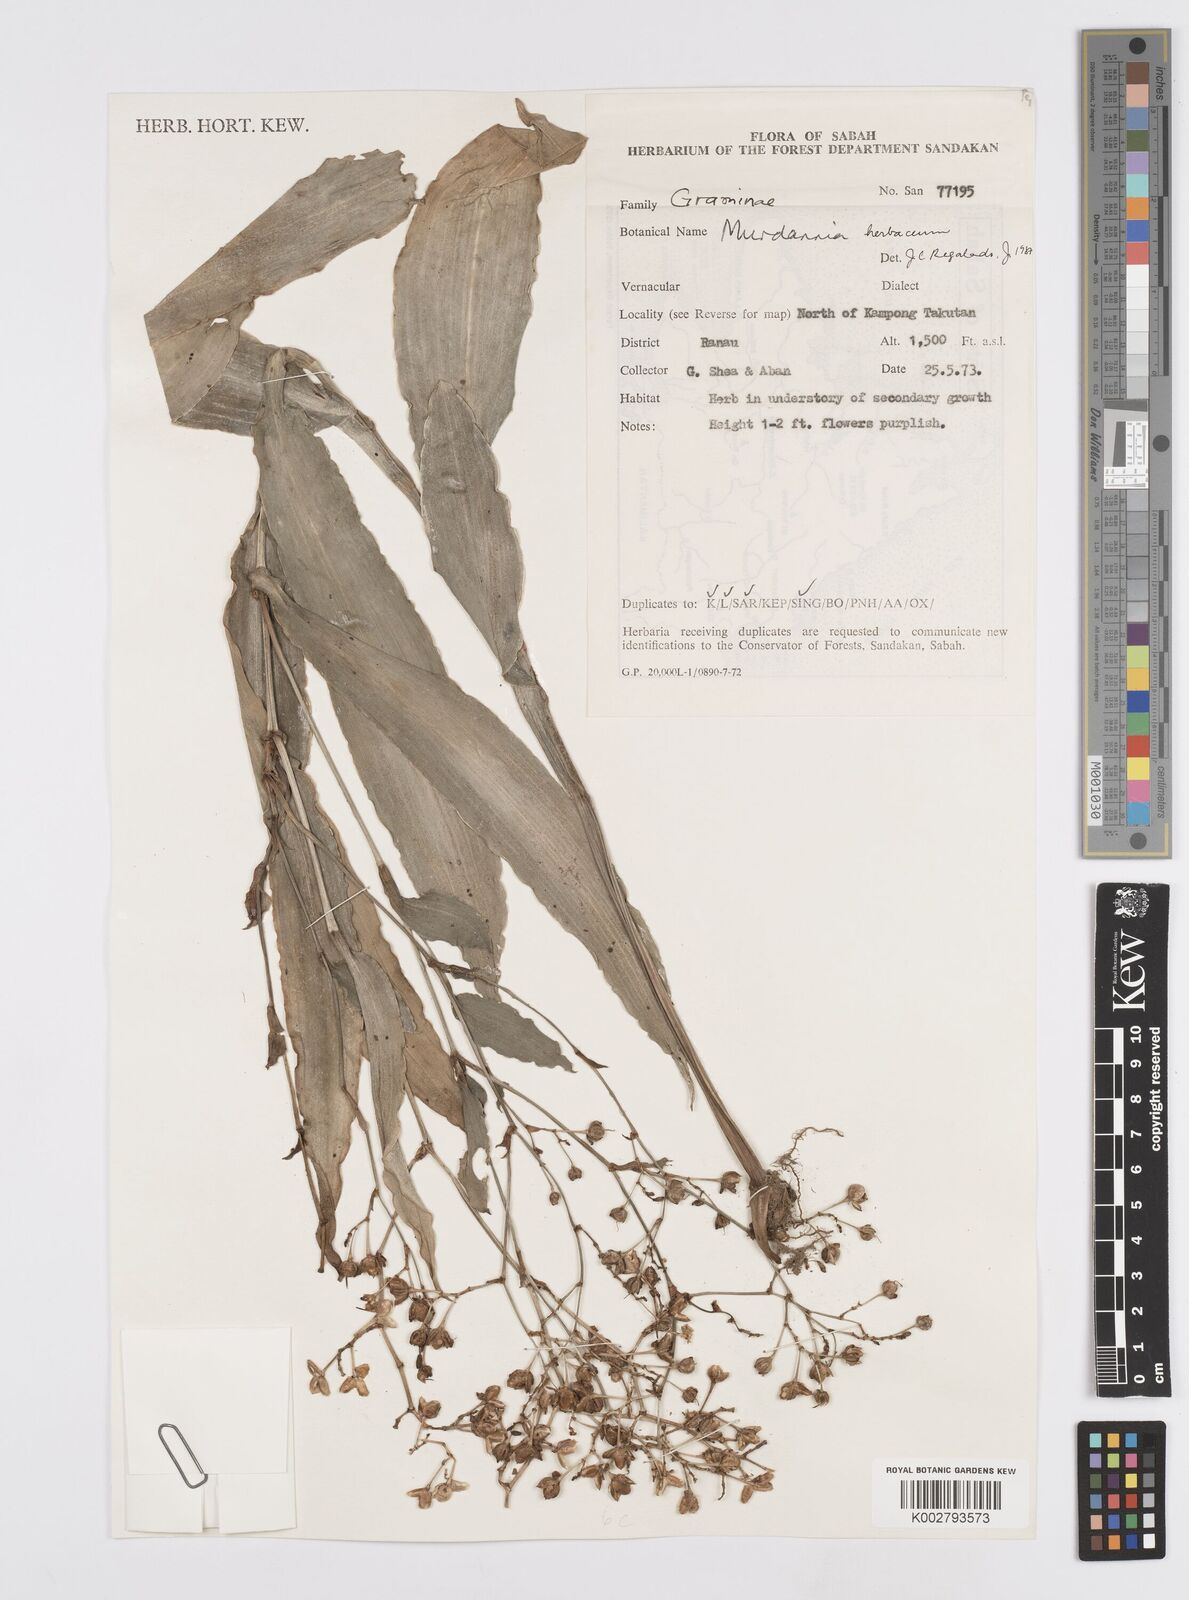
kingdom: Plantae
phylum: Tracheophyta
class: Liliopsida
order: Commelinales
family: Commelinaceae
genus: Murdannia
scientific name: Murdannia
